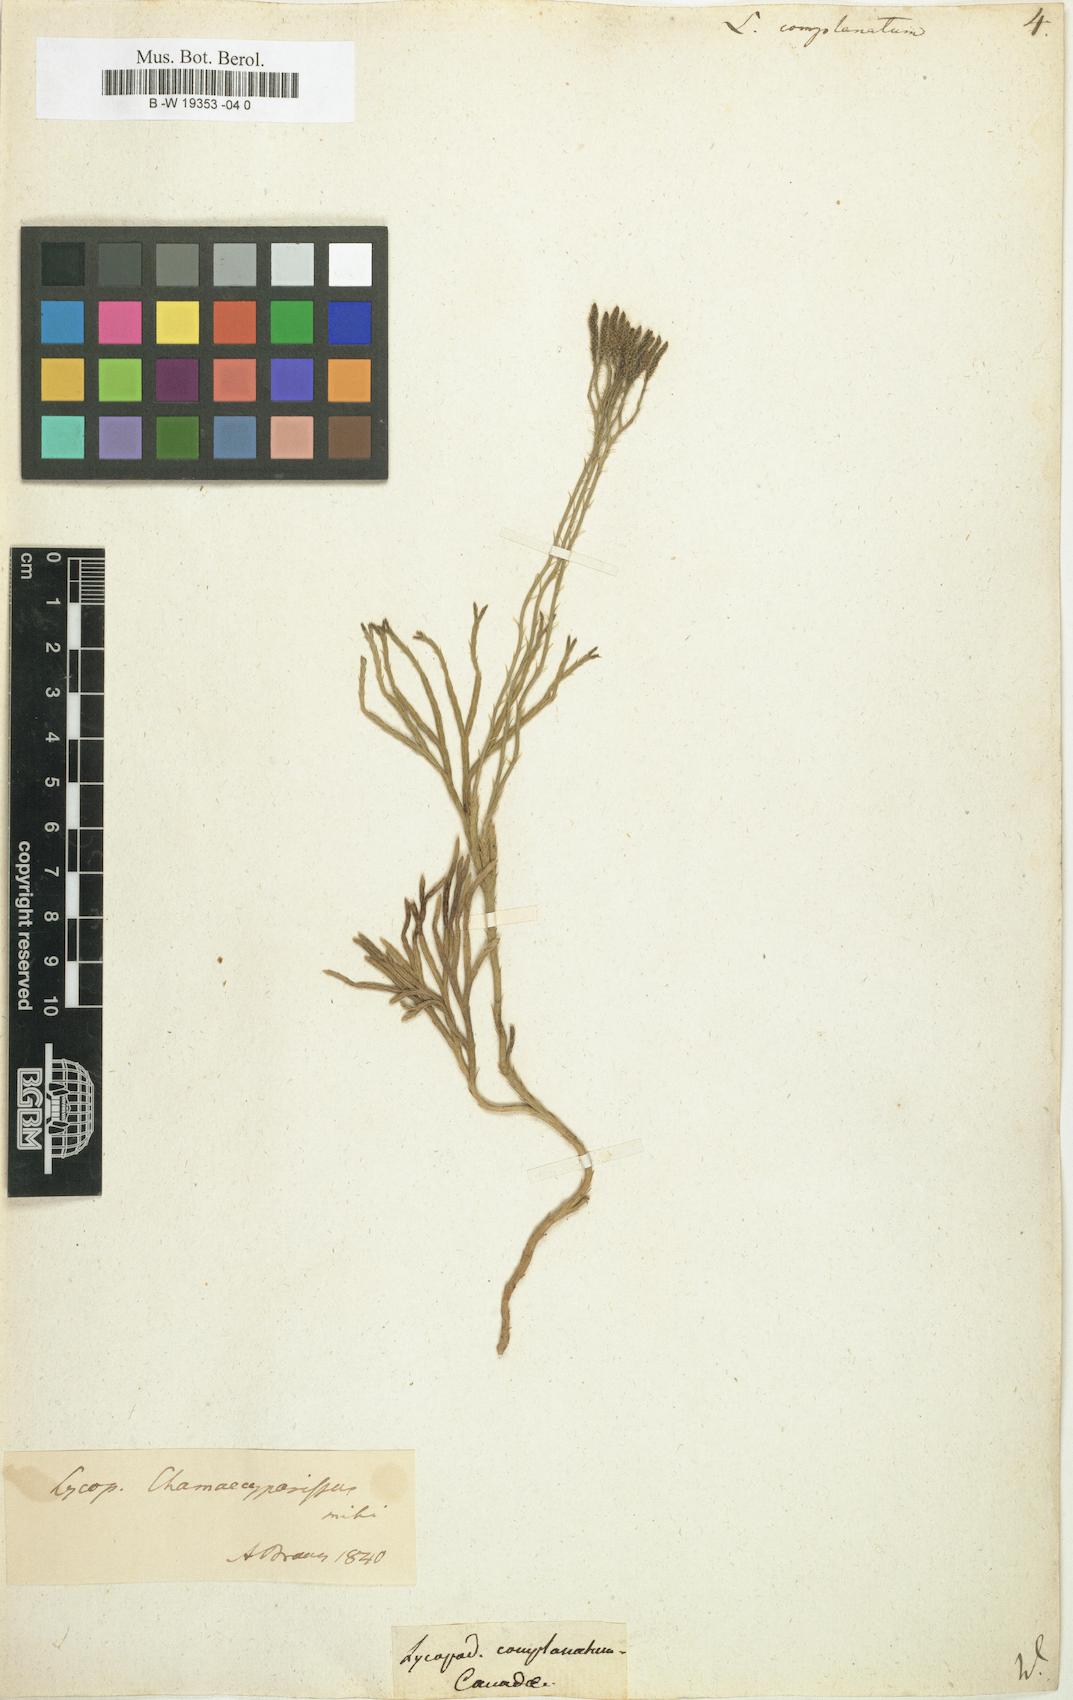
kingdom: Plantae
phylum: Tracheophyta
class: Lycopodiopsida
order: Lycopodiales
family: Lycopodiaceae
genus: Diphasiastrum
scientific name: Diphasiastrum
